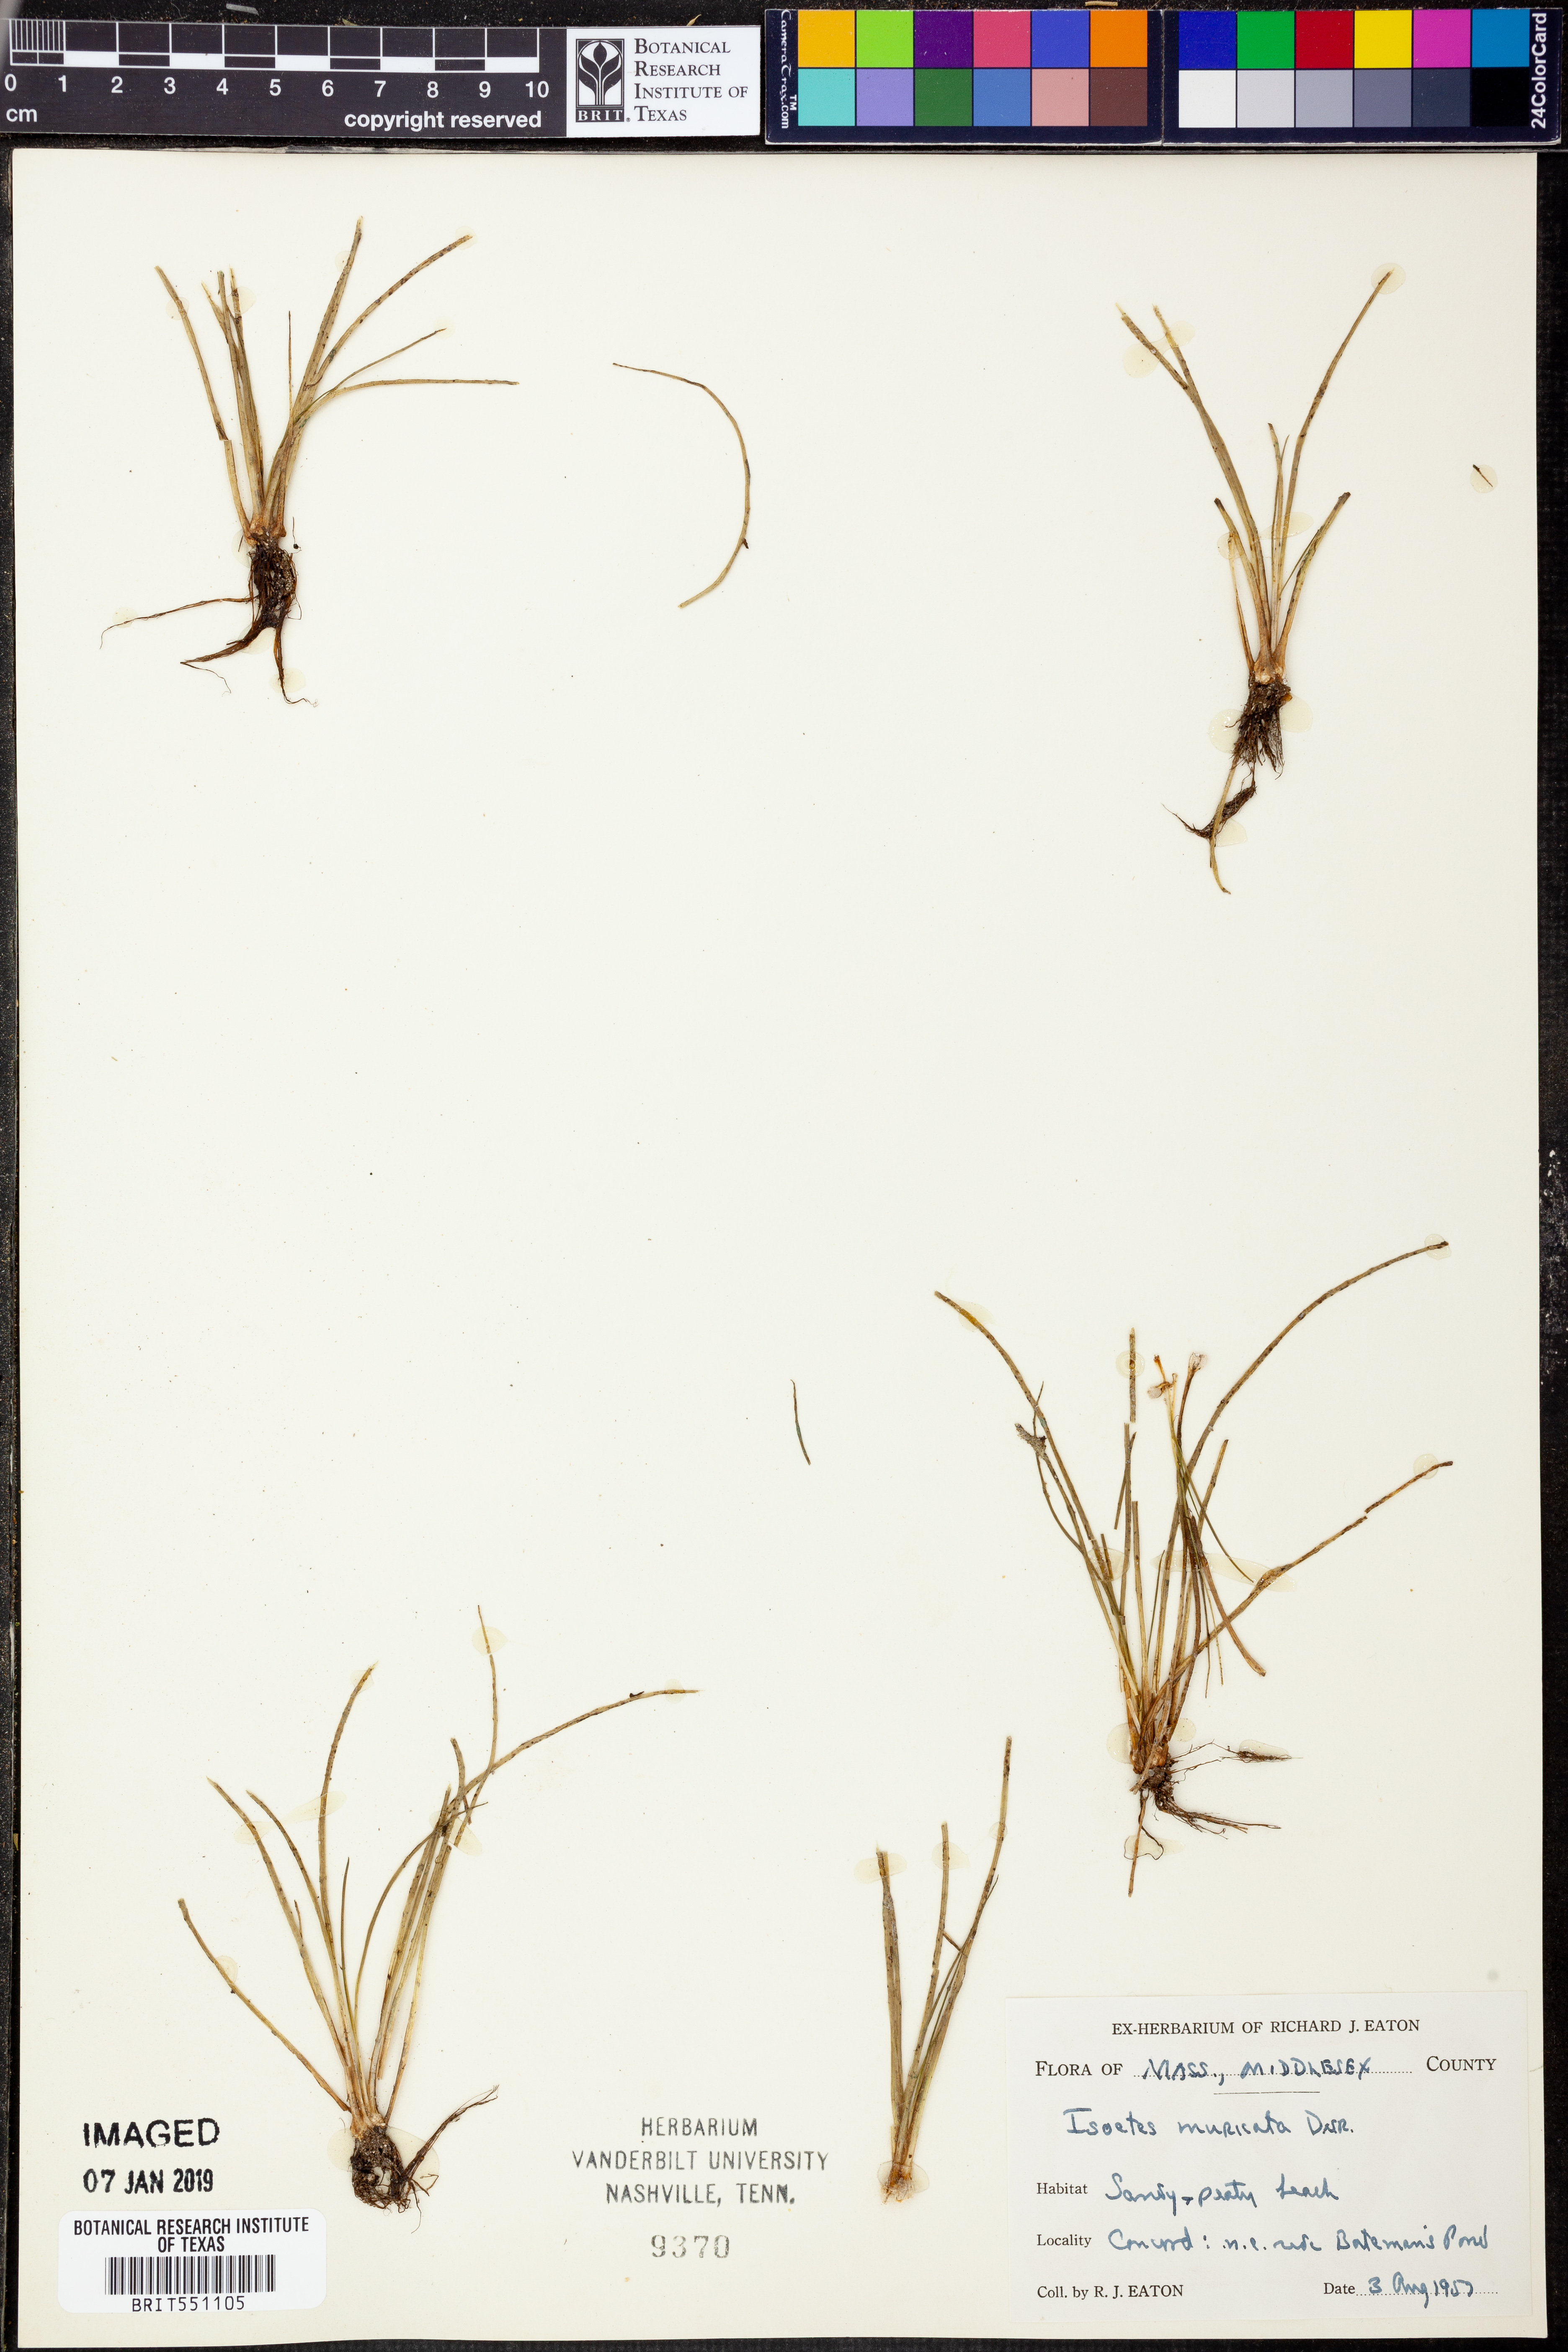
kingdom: Plantae
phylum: Tracheophyta
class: Lycopodiopsida
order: Isoetales
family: Isoetaceae
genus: Isoetes
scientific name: Isoetes echinospora
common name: Spring quillwort
